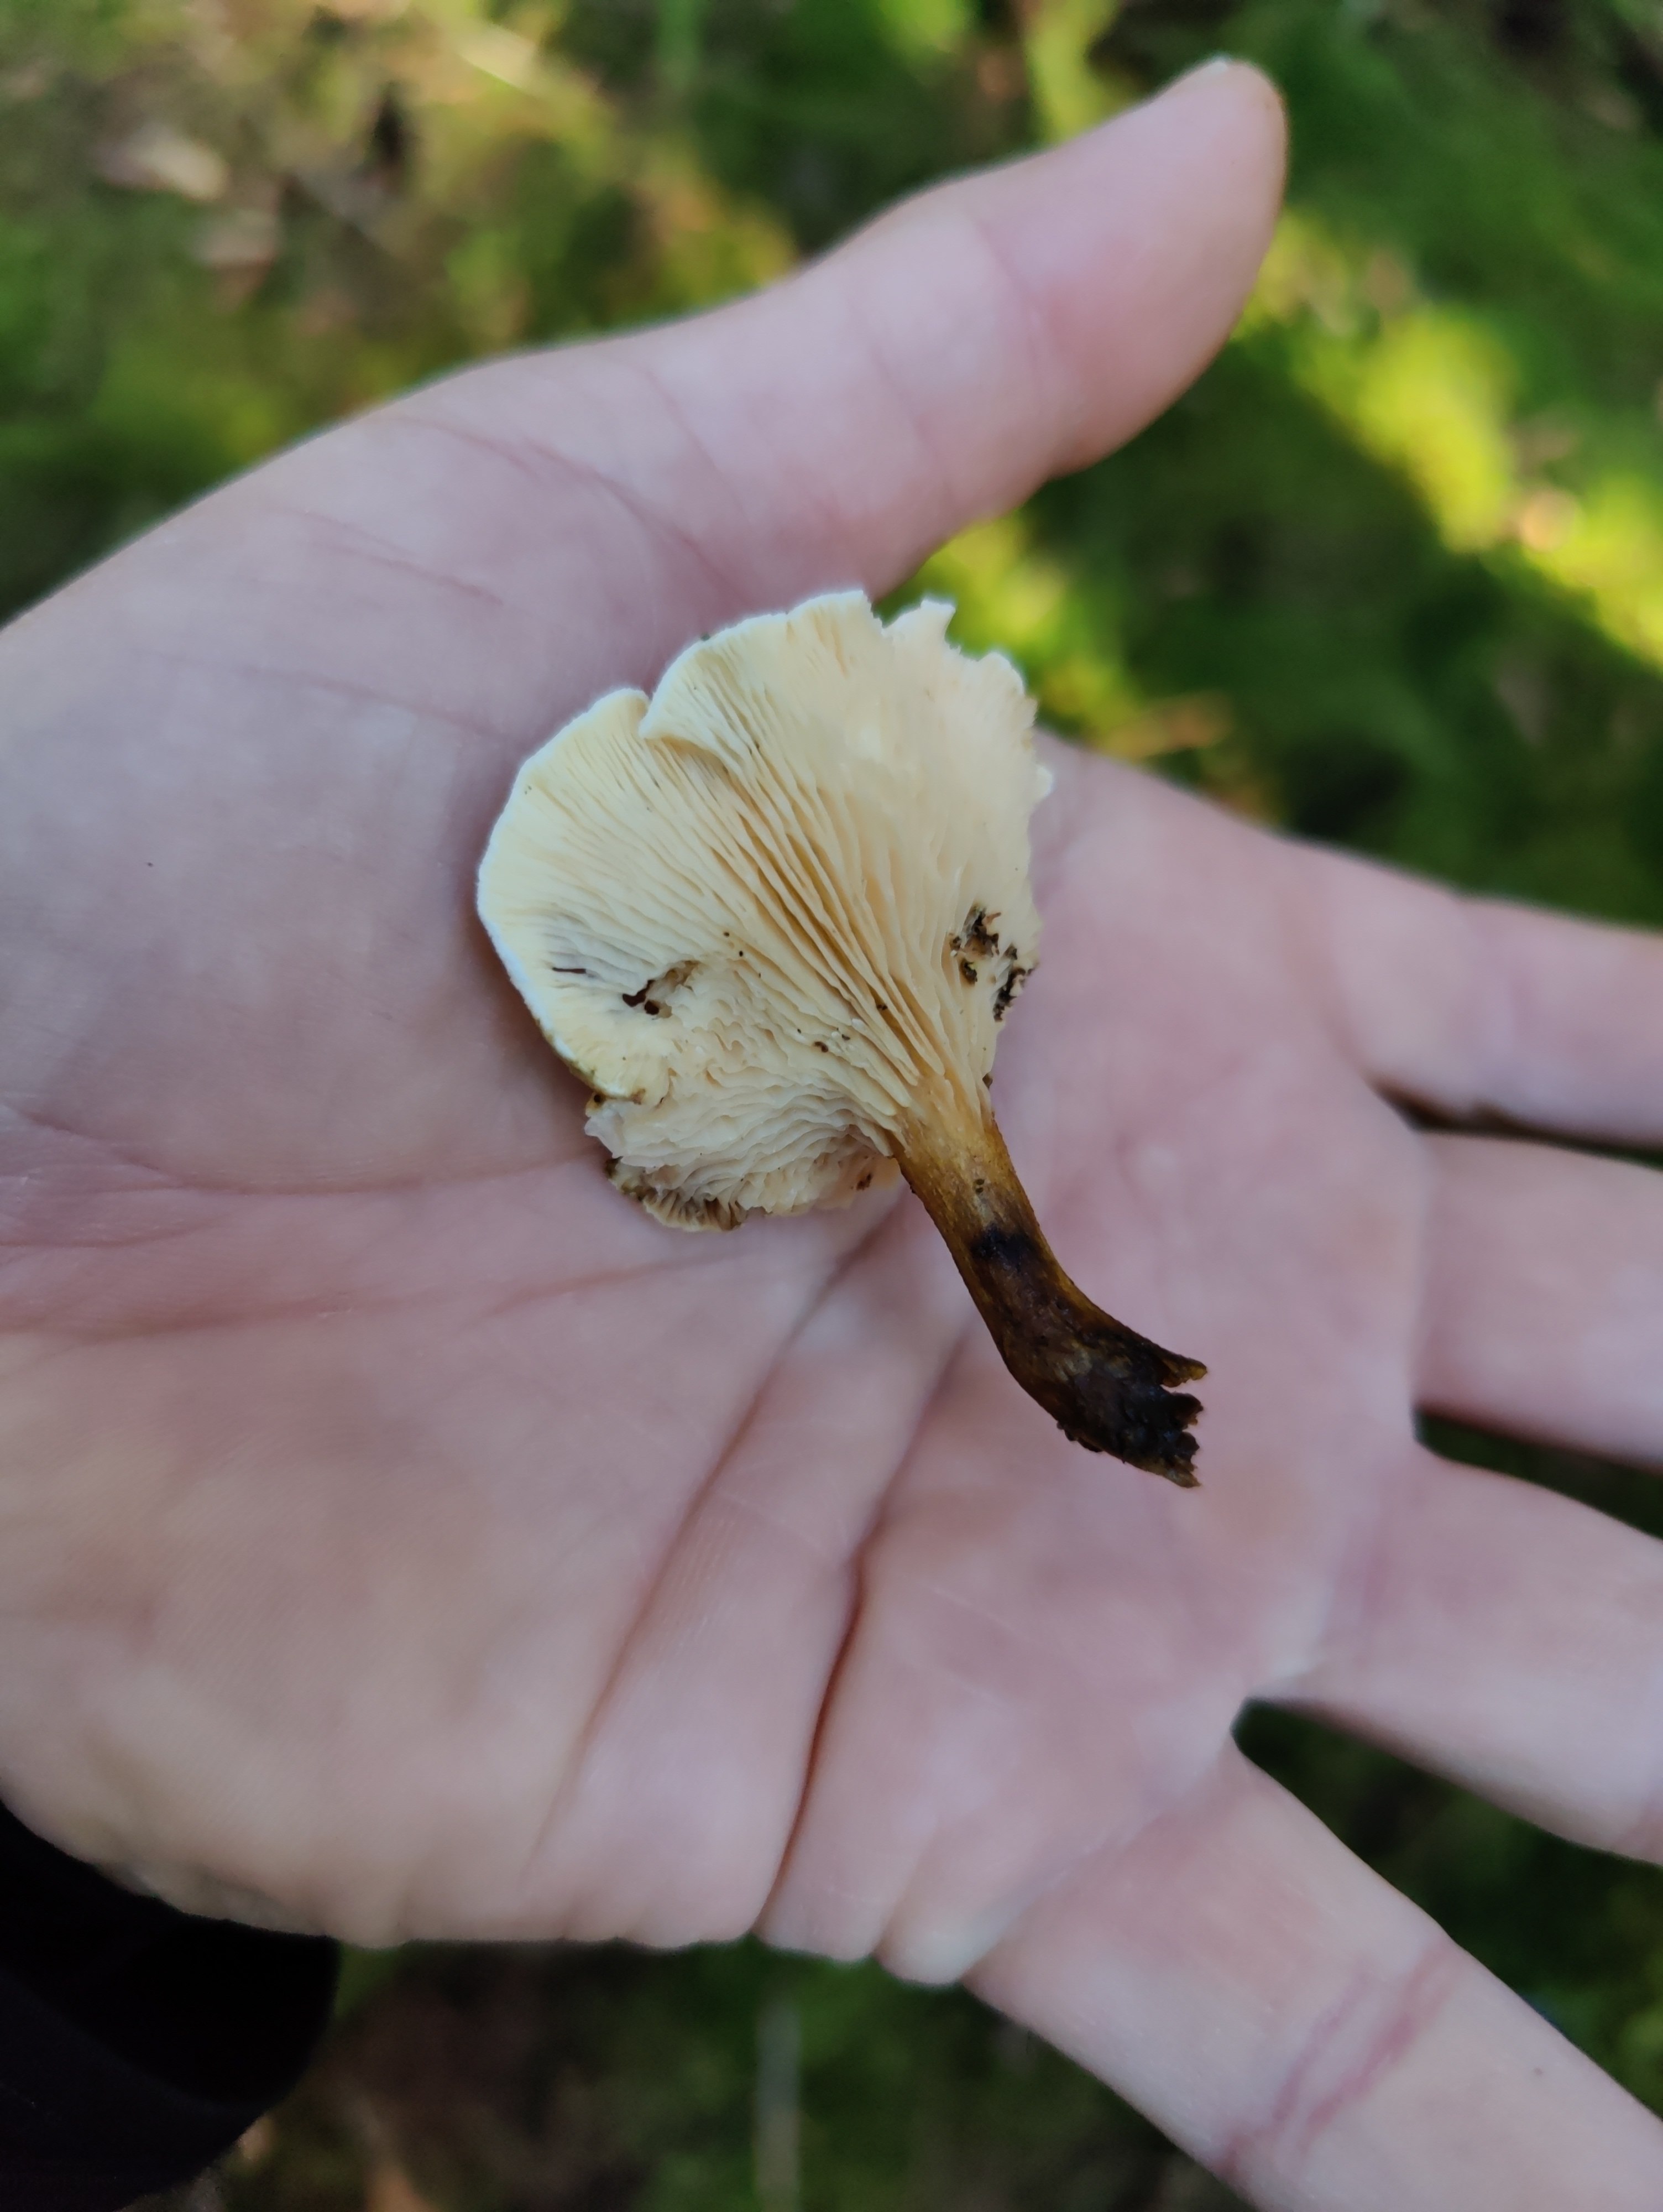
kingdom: Fungi
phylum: Basidiomycota
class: Agaricomycetes
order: Boletales
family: Hygrophoropsidaceae
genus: Hygrophoropsis
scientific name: Hygrophoropsis
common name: orangekantarel
